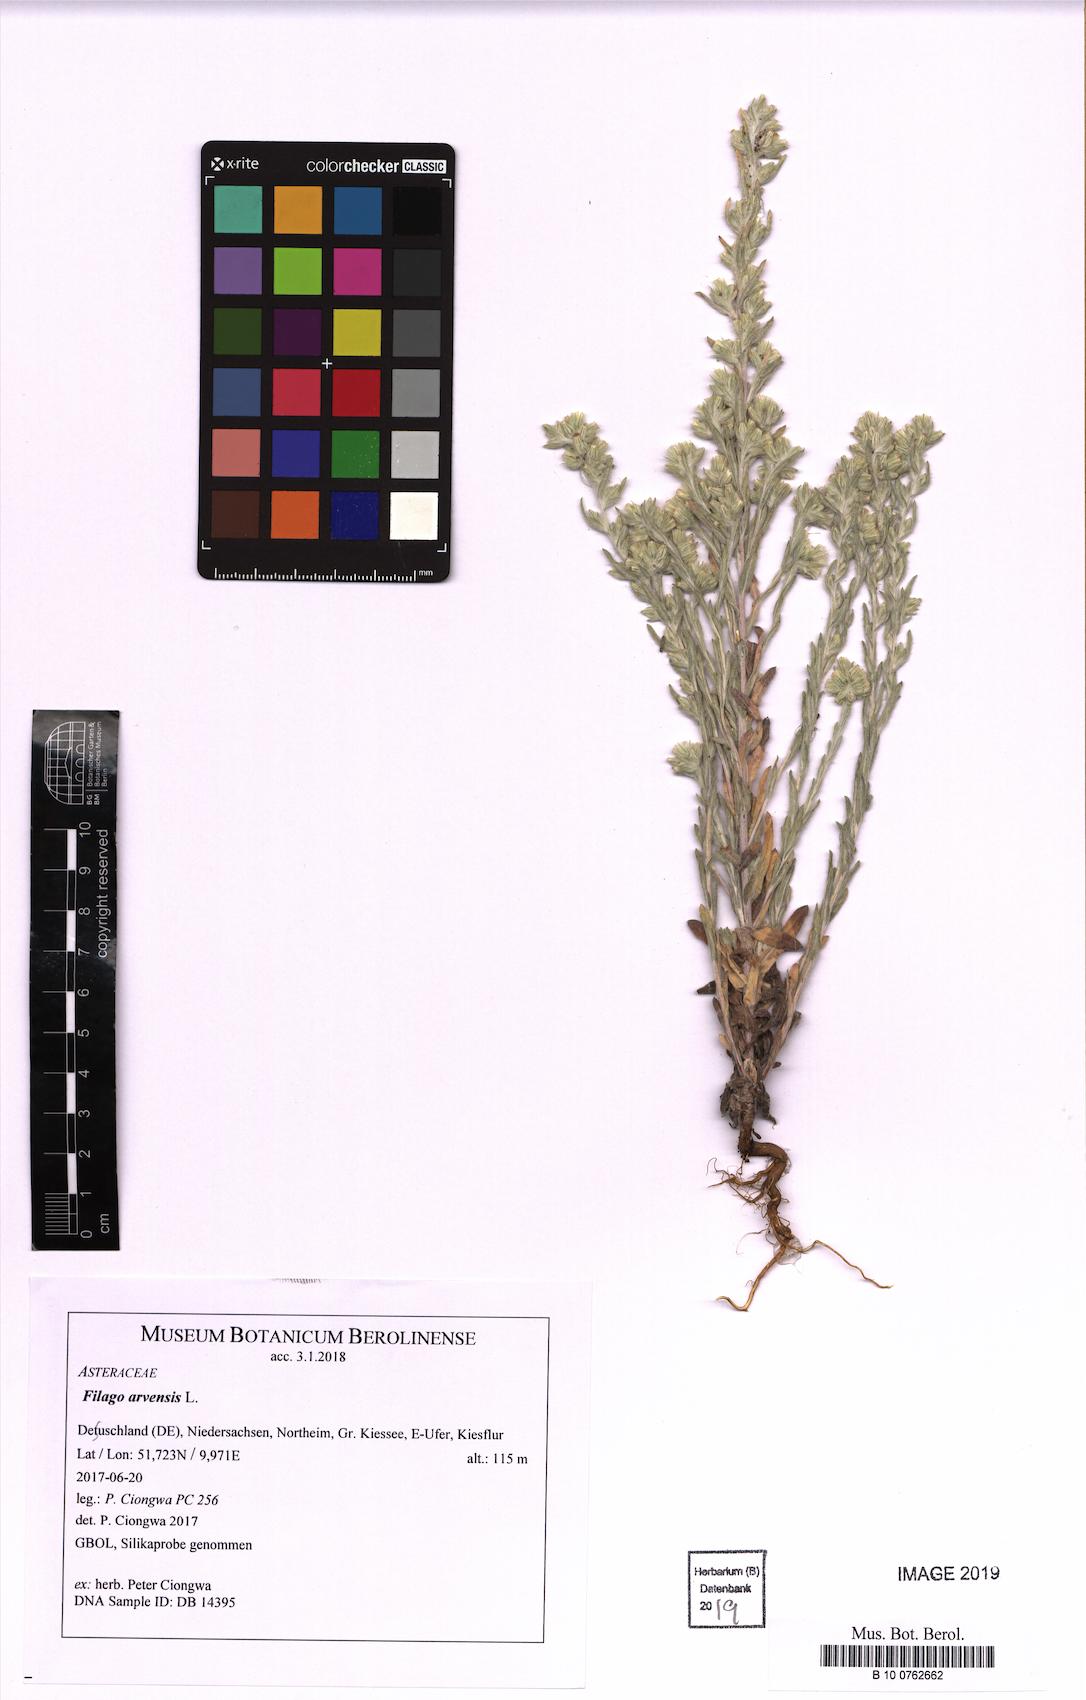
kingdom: Plantae
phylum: Tracheophyta
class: Magnoliopsida
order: Asterales
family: Asteraceae
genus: Filago
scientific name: Filago arvensis
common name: Field cudweed
